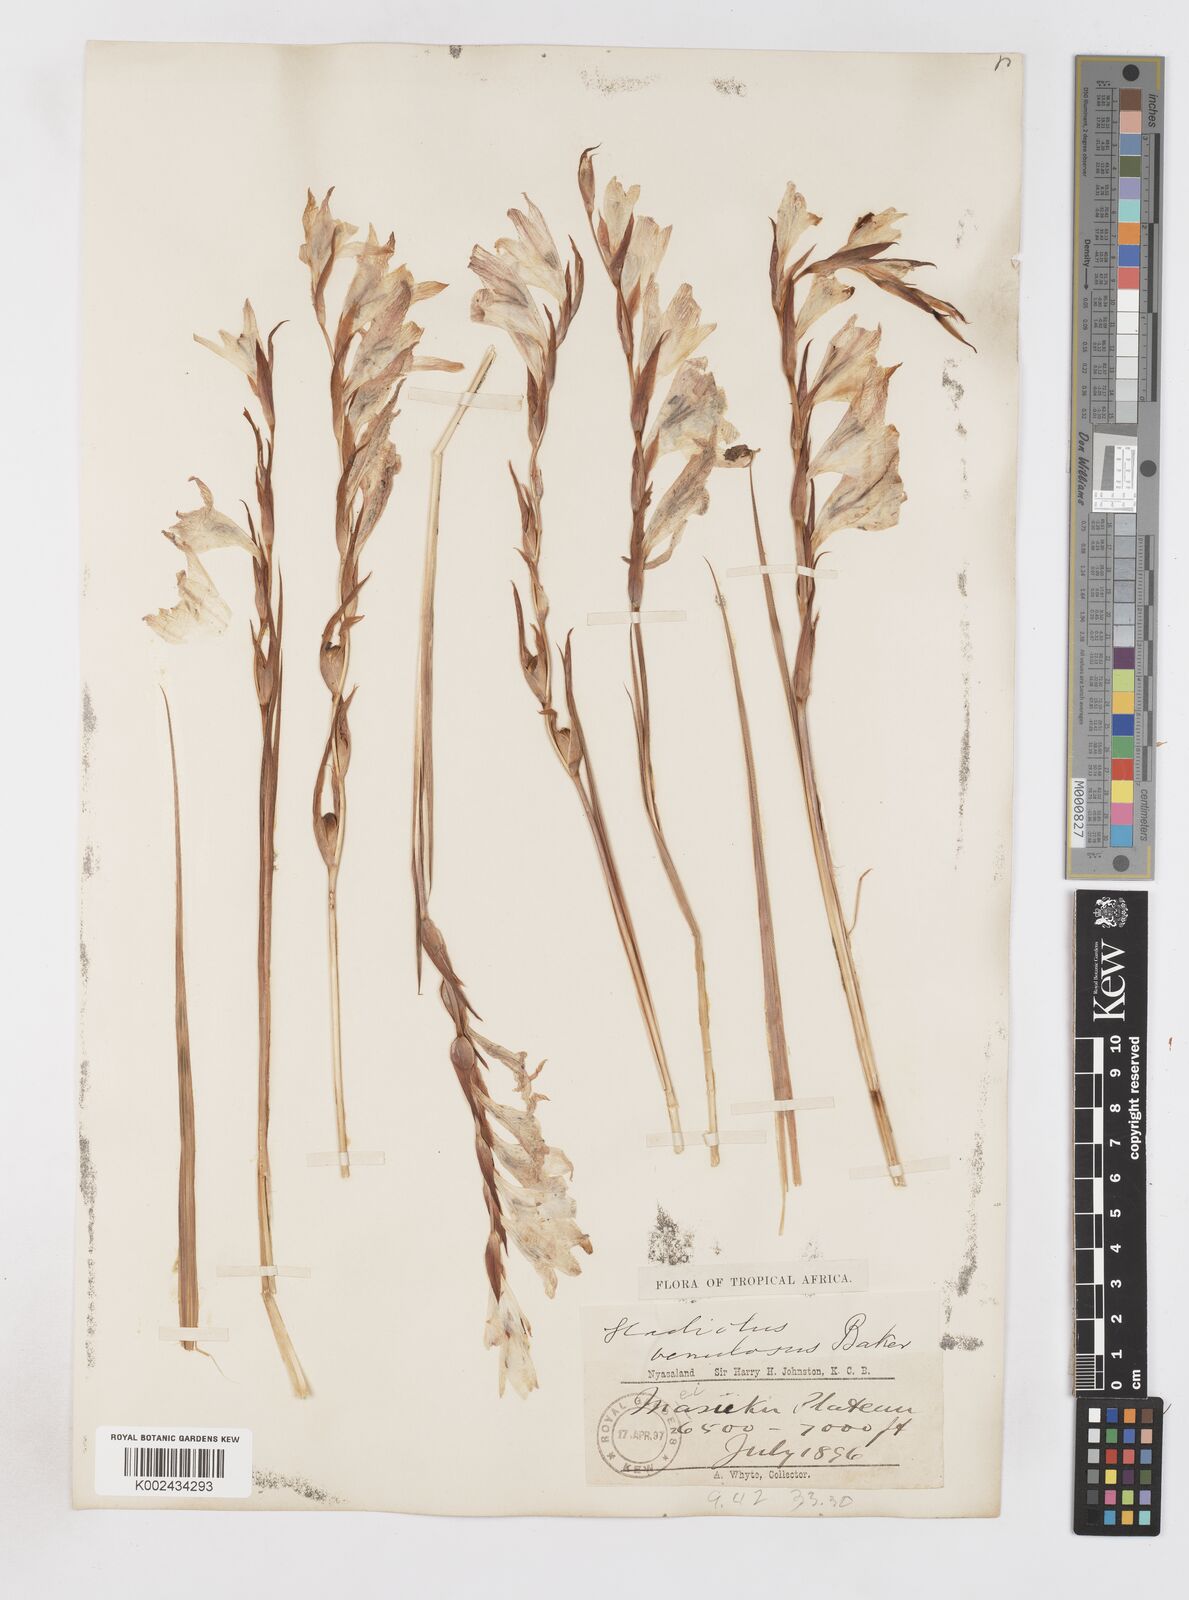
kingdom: Plantae
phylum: Tracheophyta
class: Liliopsida
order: Asparagales
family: Iridaceae
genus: Gladiolus
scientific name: Gladiolus erectiflorus
